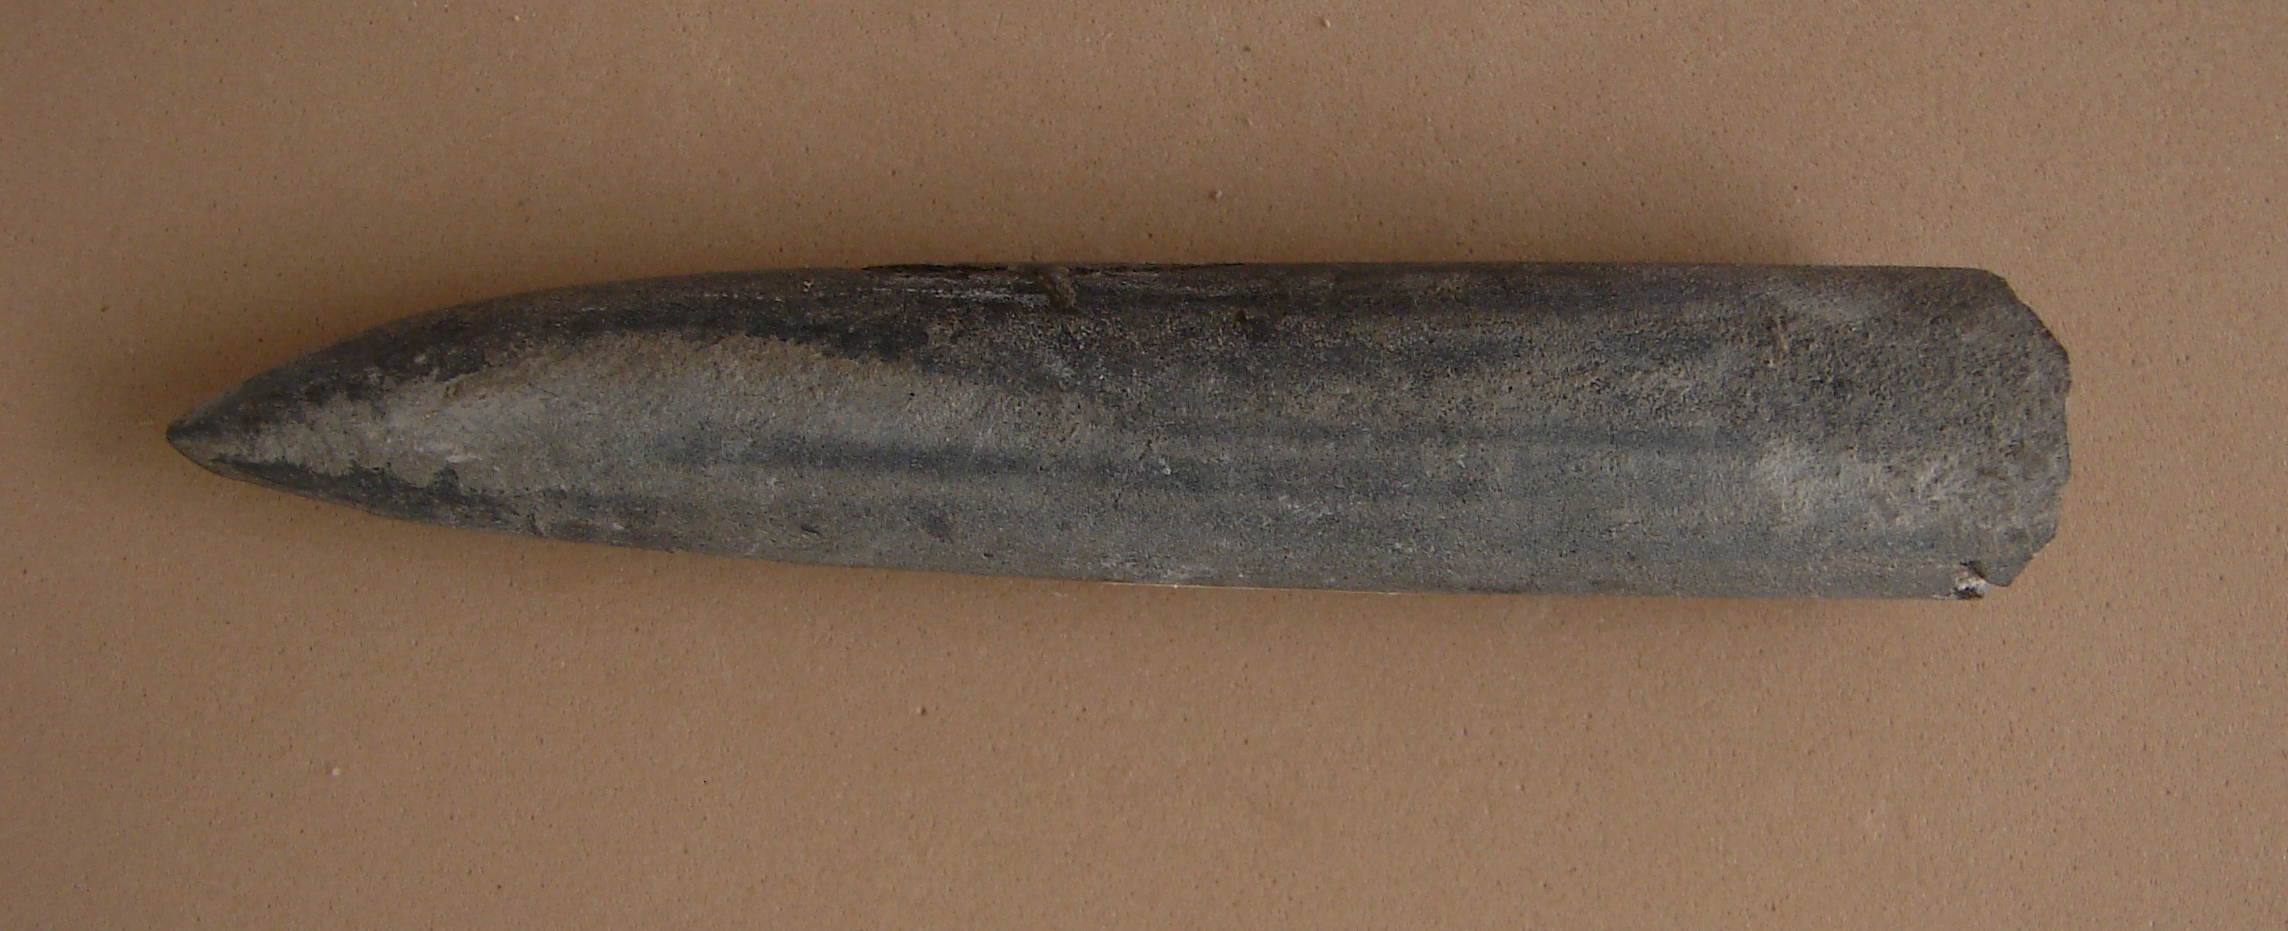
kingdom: Animalia
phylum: Mollusca
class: Cephalopoda
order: Belemnitida
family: Passaloteuthidae
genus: Passaloteuthis
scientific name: Passaloteuthis laevigata
